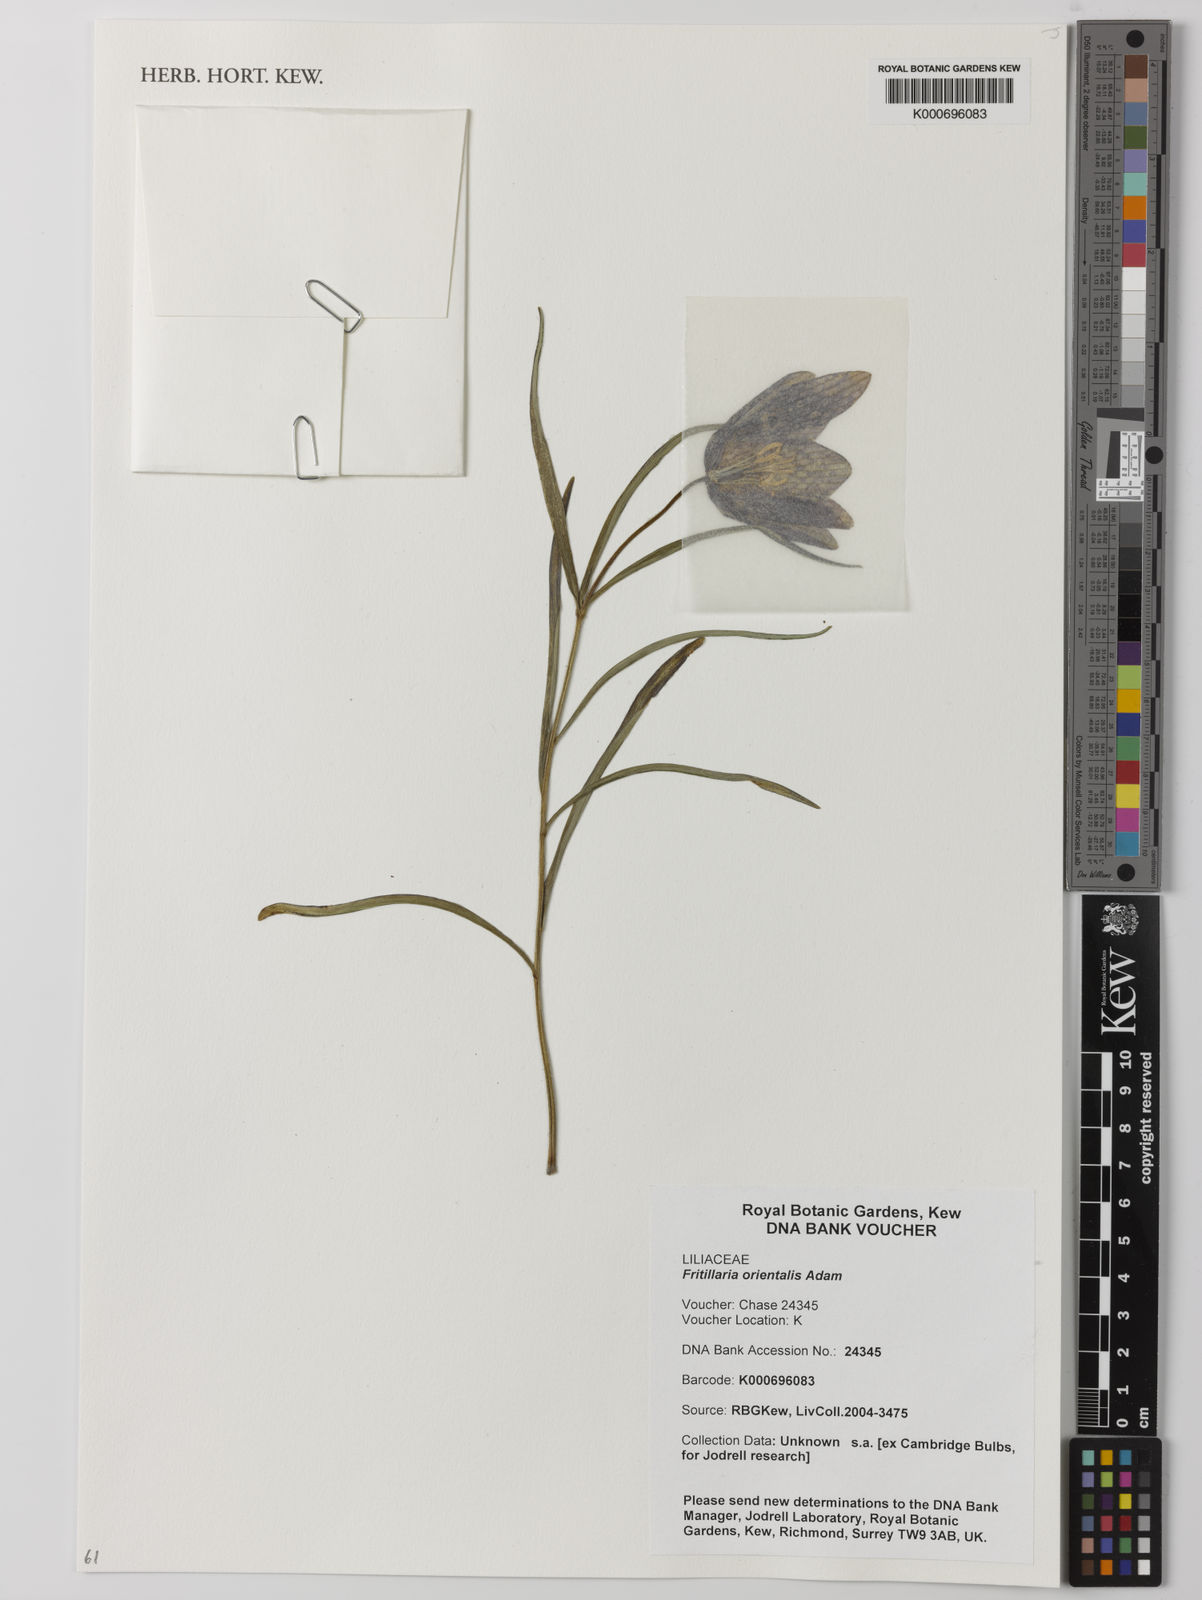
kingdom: Plantae
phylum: Tracheophyta
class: Liliopsida
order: Liliales
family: Liliaceae
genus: Fritillaria
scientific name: Fritillaria orientalis
